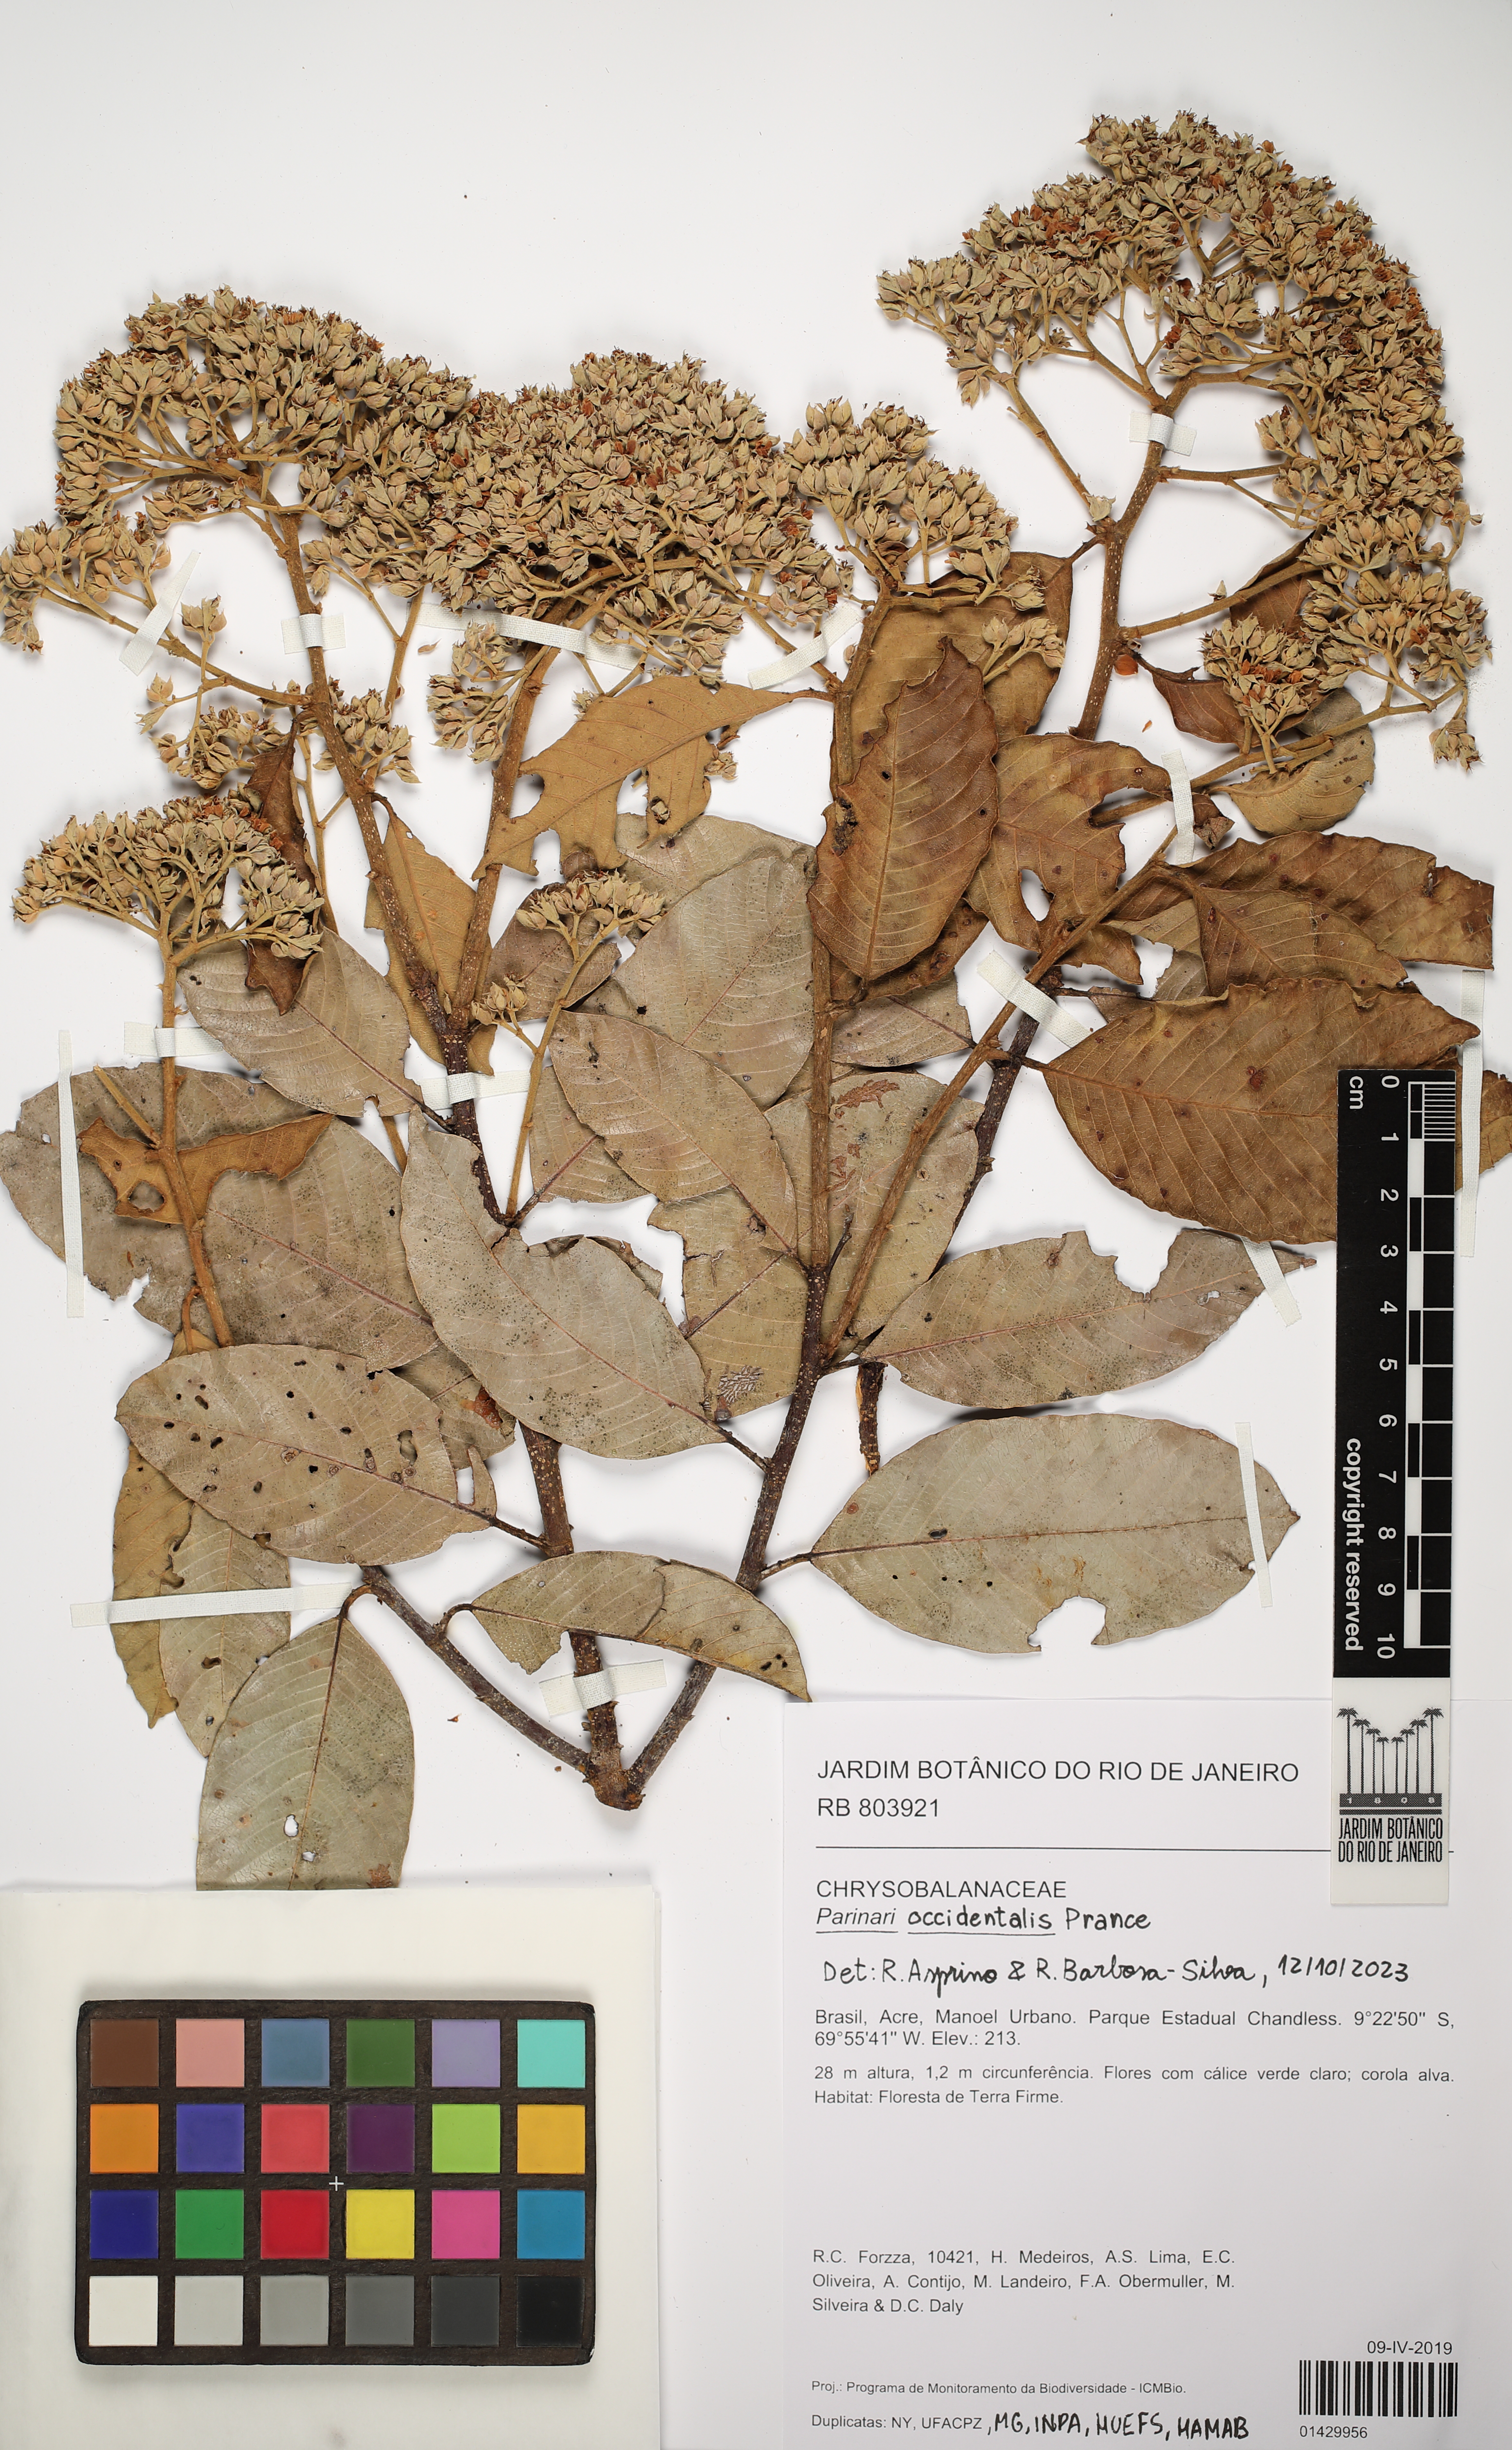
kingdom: Plantae
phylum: Tracheophyta
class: Magnoliopsida
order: Malpighiales
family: Chrysobalanaceae
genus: Parinari
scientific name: Parinari occidentalis
